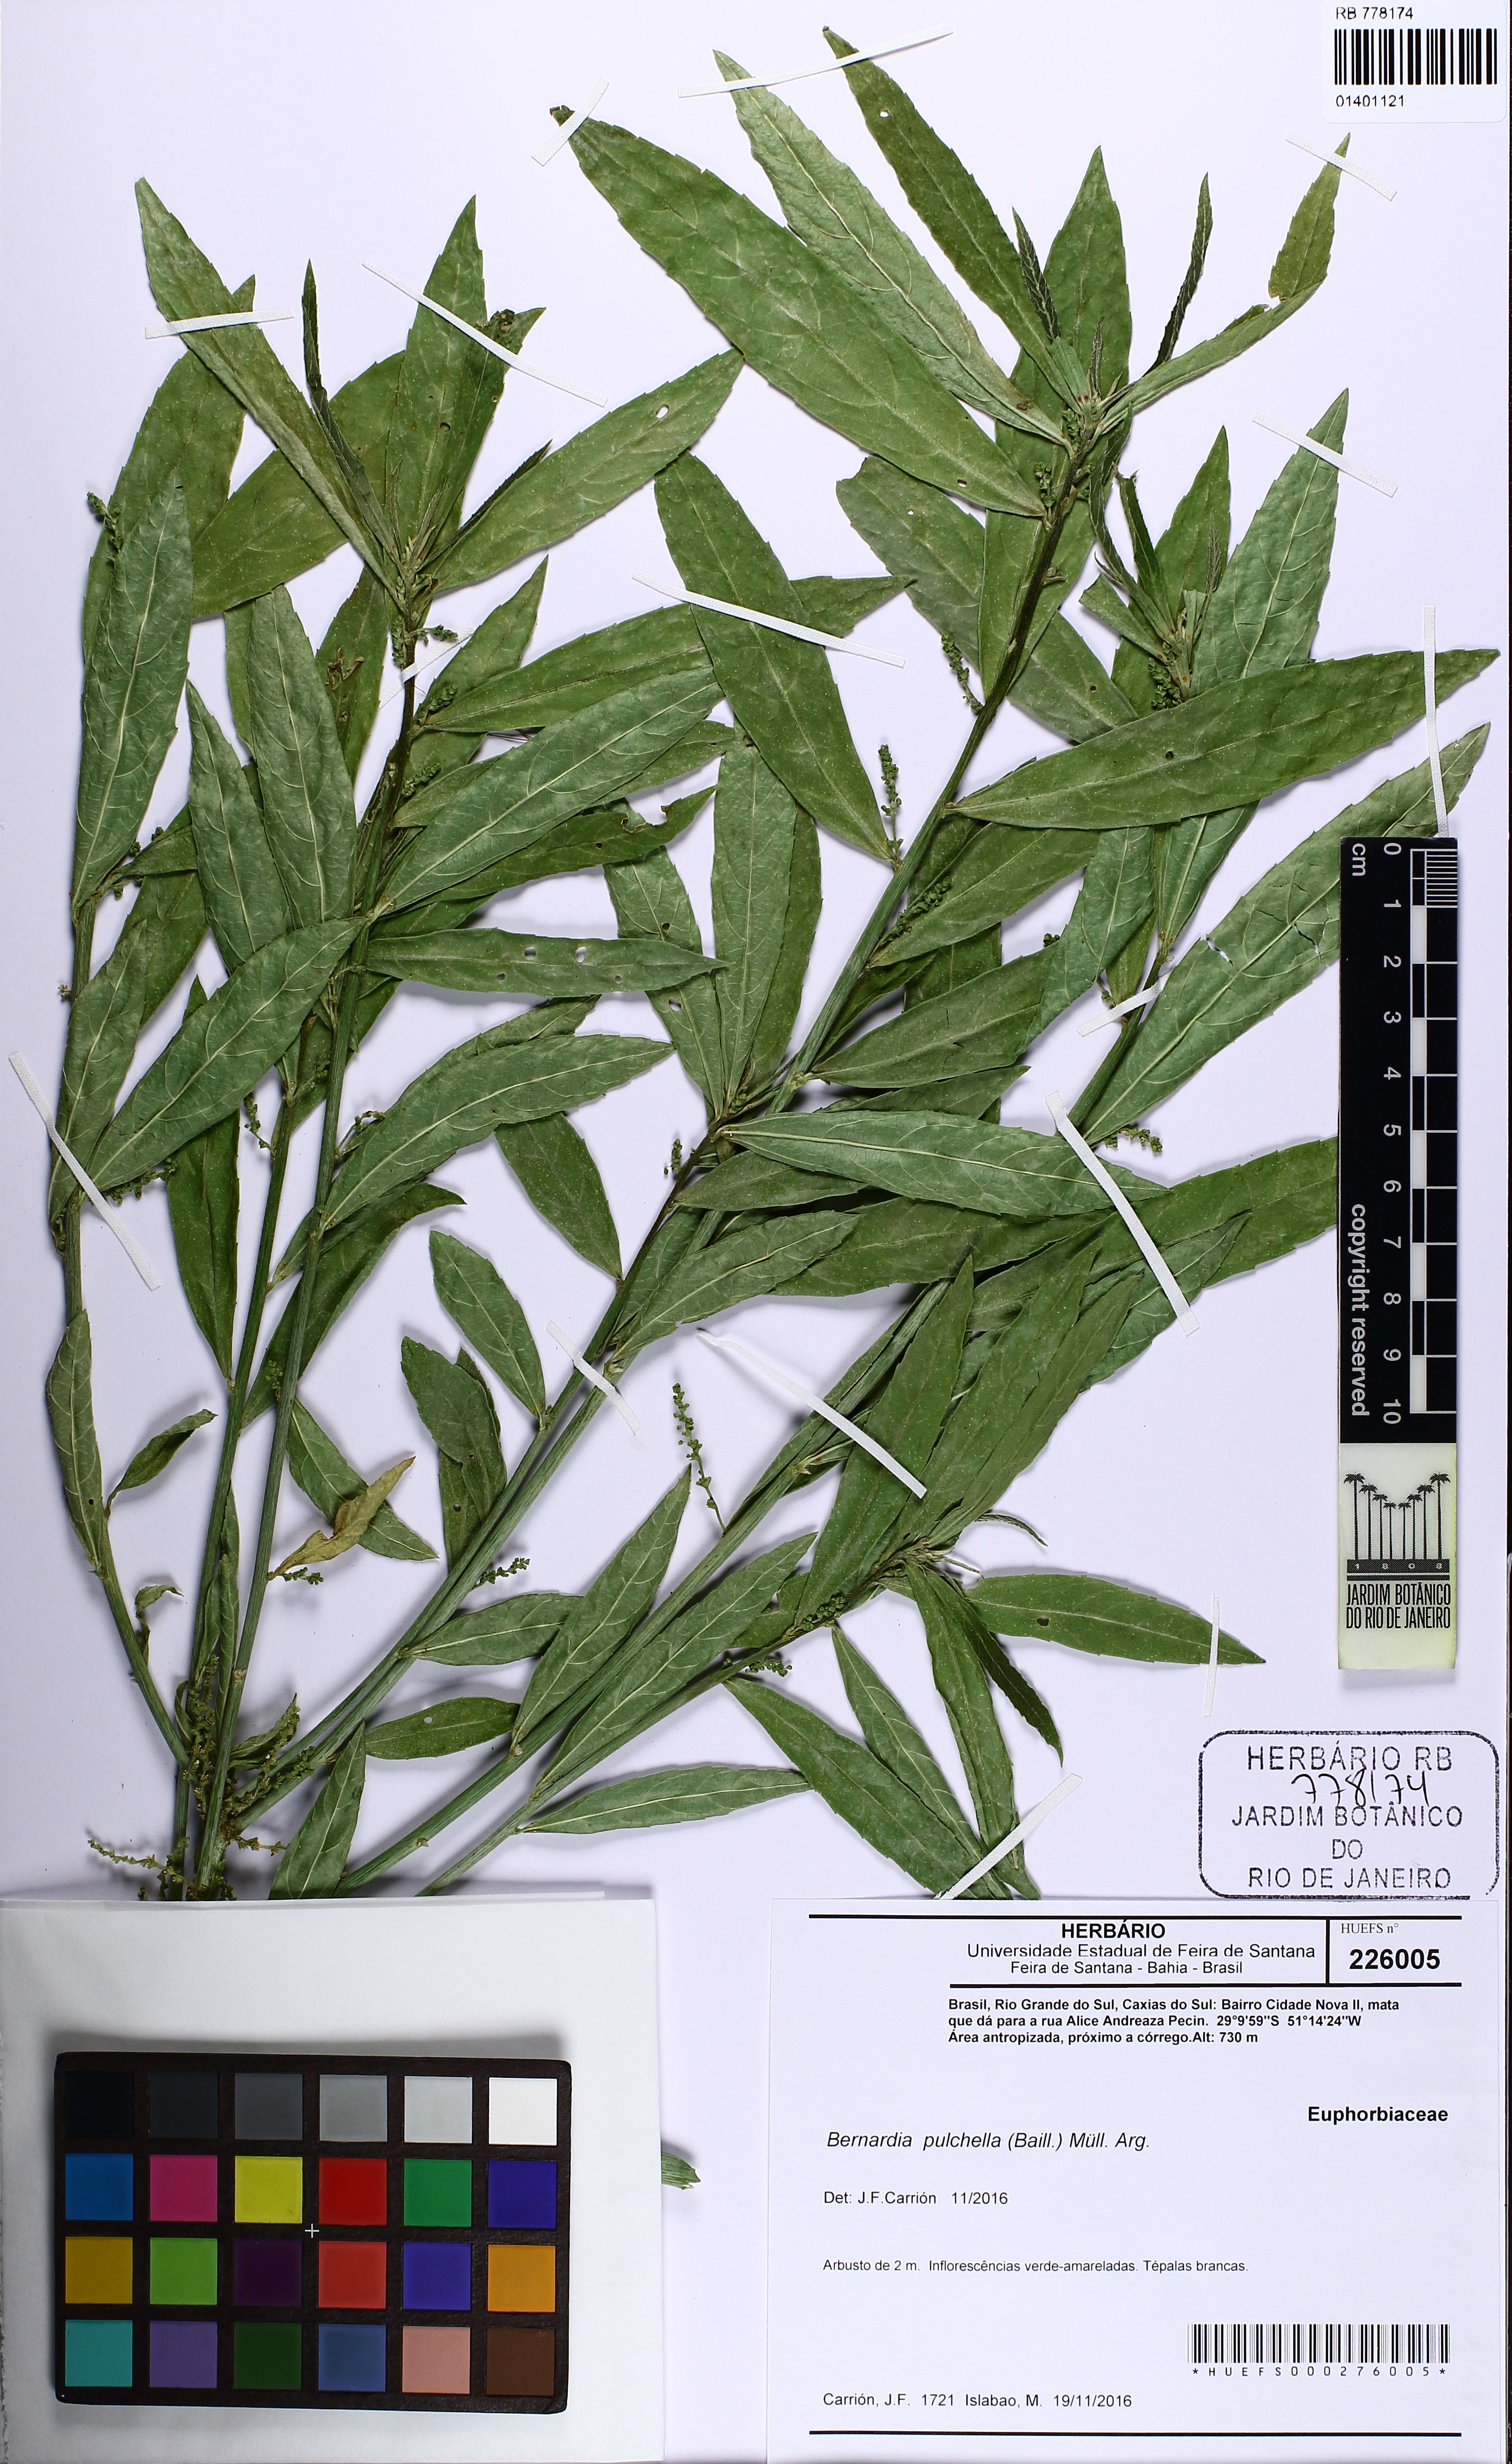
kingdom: Plantae
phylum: Tracheophyta
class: Magnoliopsida
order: Malpighiales
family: Euphorbiaceae
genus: Bernardia
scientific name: Bernardia pulchella
